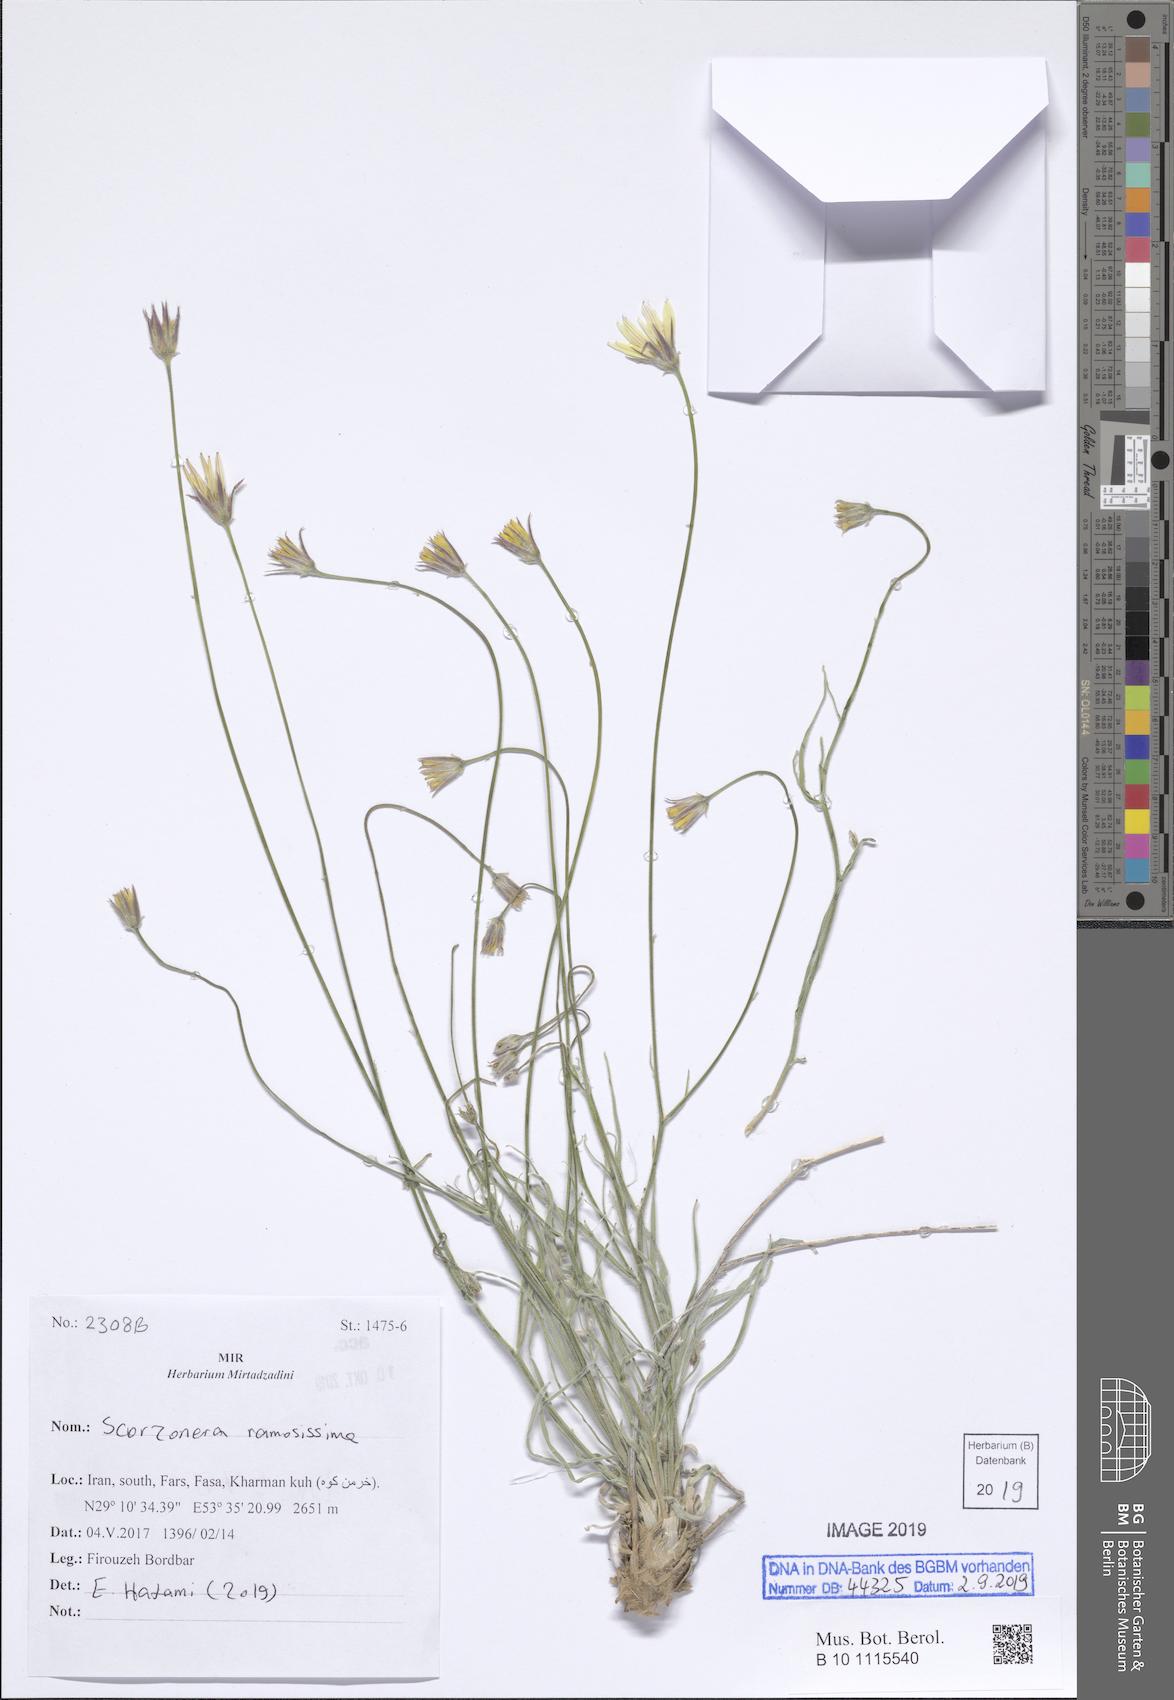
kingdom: Plantae
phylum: Tracheophyta
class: Magnoliopsida
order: Asterales
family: Asteraceae
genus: Gelasia
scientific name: Gelasia ramosissima
